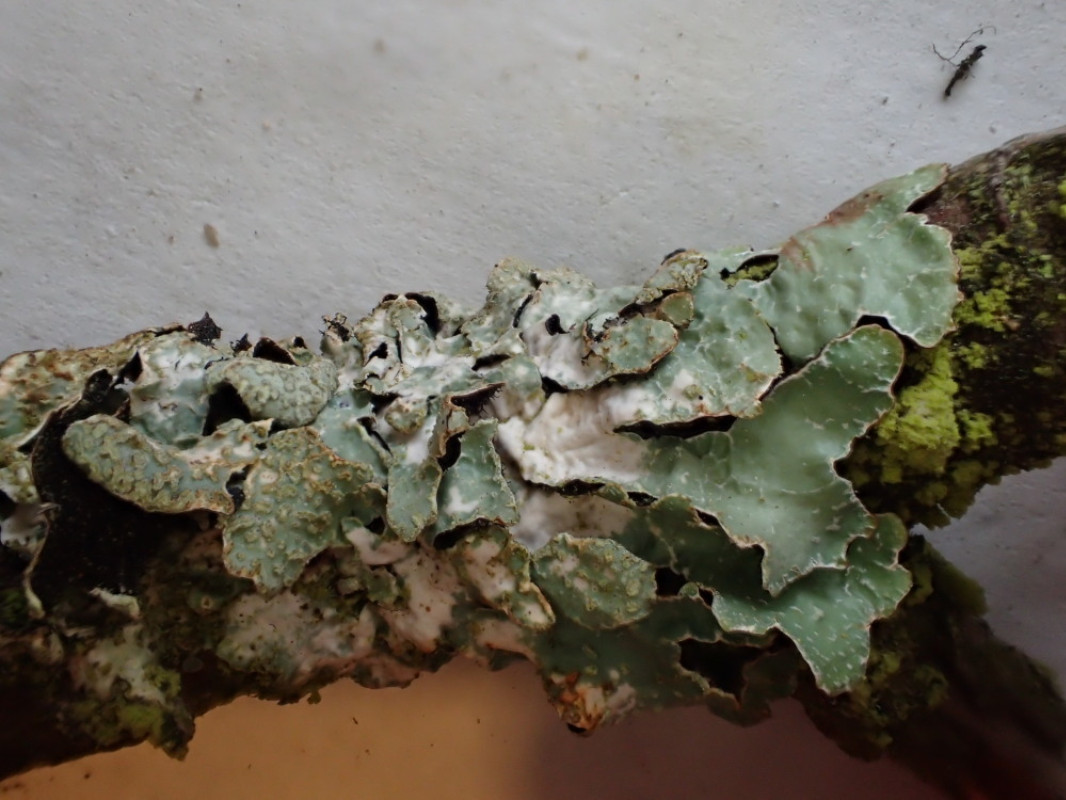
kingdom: Fungi
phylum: Ascomycota
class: Lecanoromycetes
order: Lecanorales
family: Parmeliaceae
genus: Parmelia
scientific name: Parmelia sulcata
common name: rynket skållav
